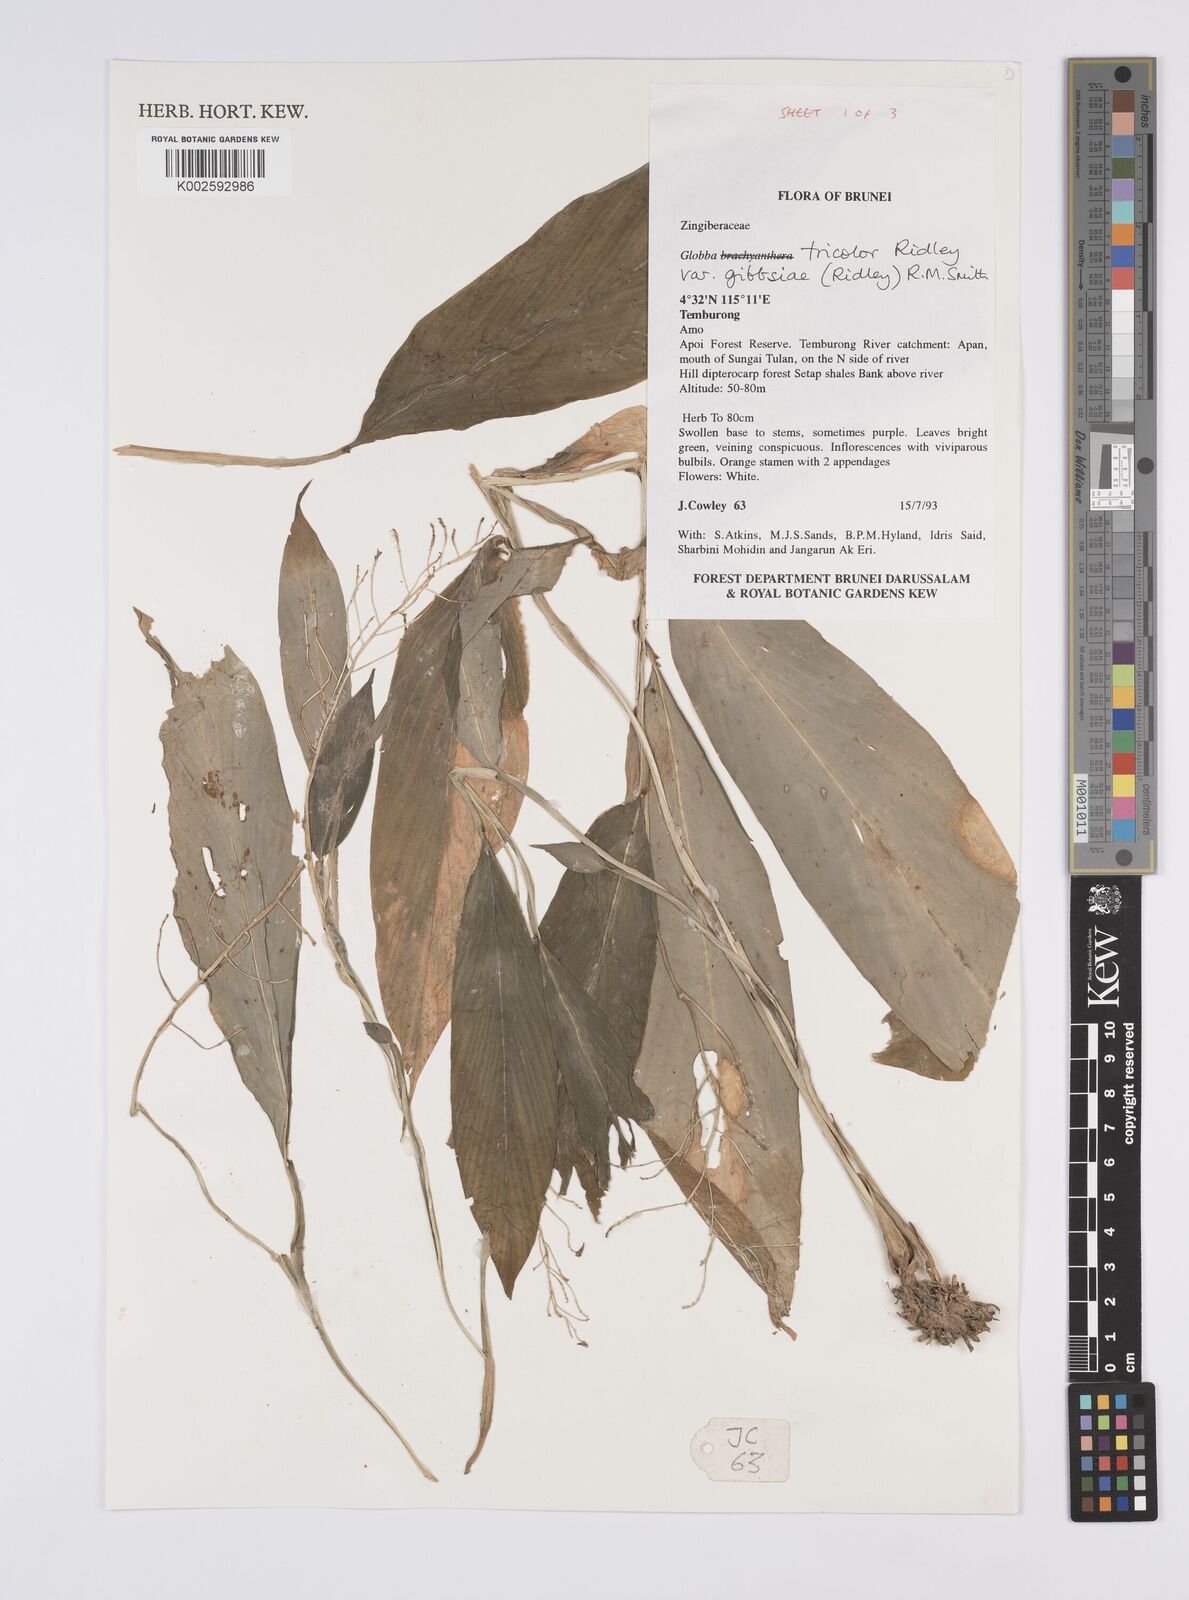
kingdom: Plantae
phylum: Tracheophyta
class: Liliopsida
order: Zingiberales
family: Zingiberaceae
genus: Globba
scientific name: Globba tricolor
